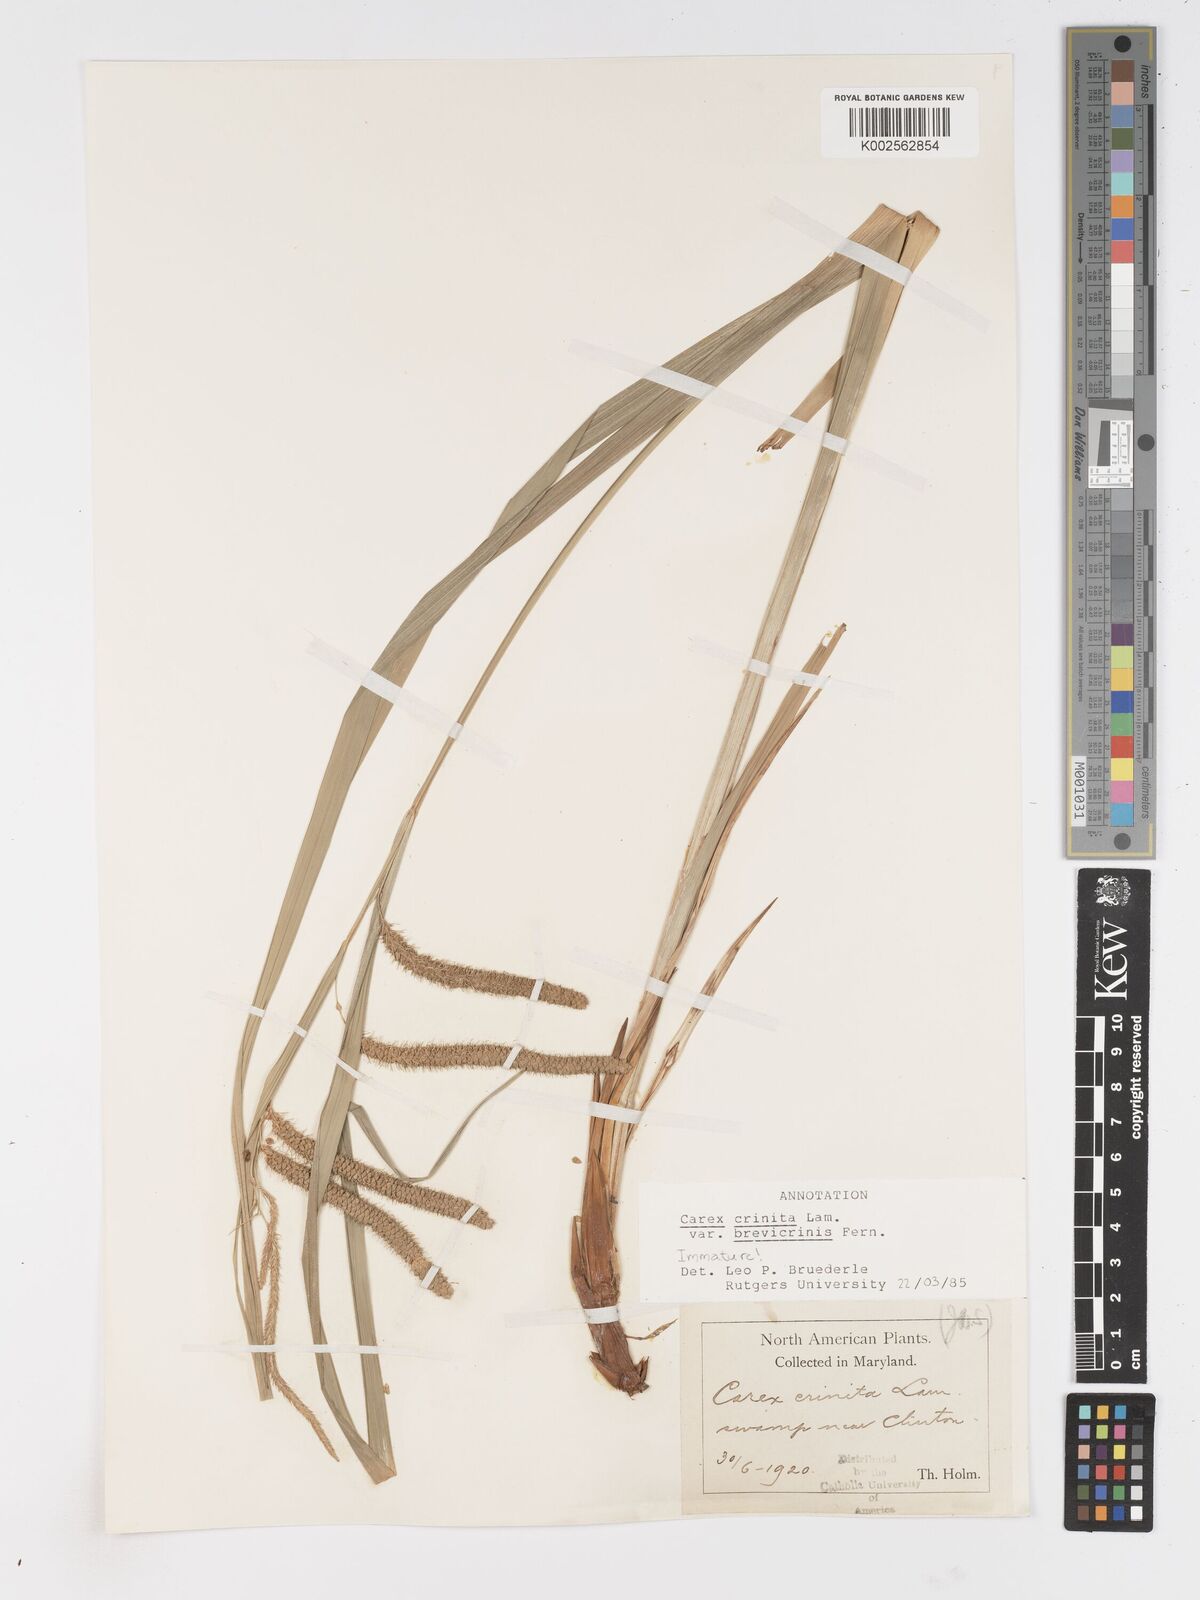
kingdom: Plantae
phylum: Tracheophyta
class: Liliopsida
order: Poales
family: Cyperaceae
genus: Carex
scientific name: Carex crinita
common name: Fringed sedge
